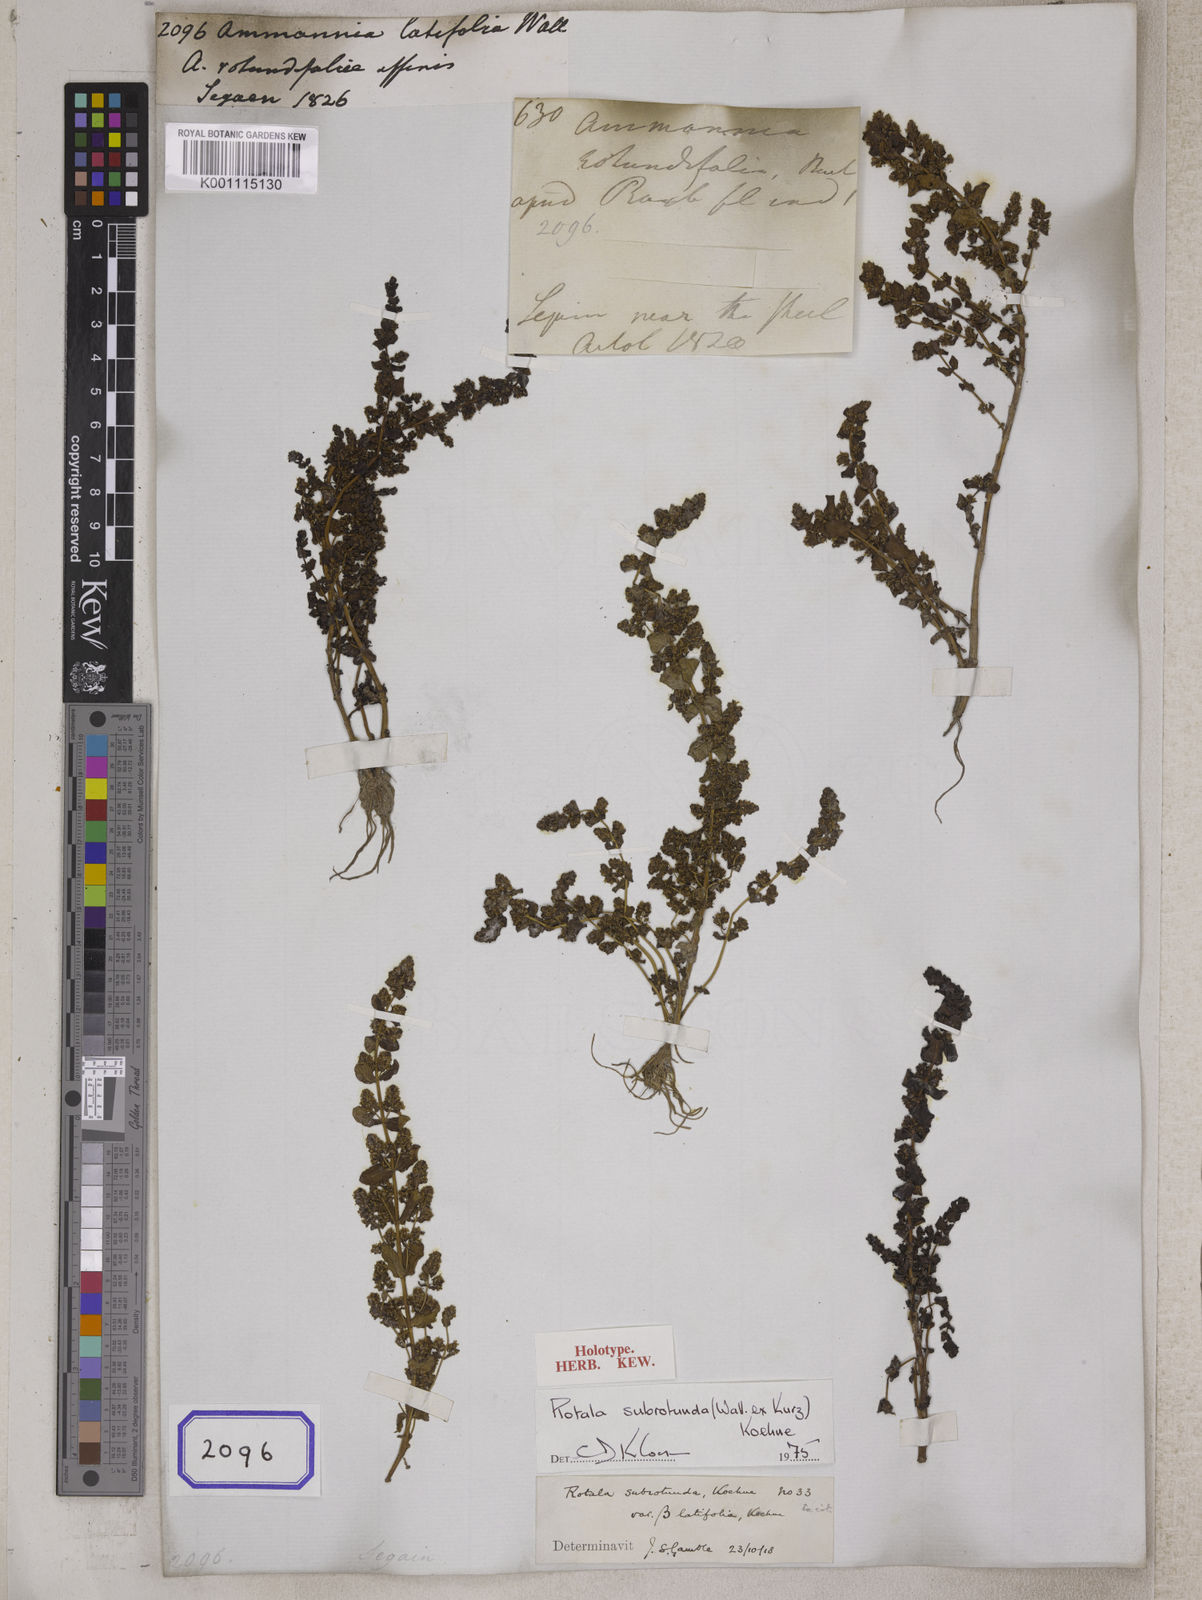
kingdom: Plantae
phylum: Tracheophyta
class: Magnoliopsida
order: Myrtales
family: Lythraceae
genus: Ammannia
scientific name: Ammannia
